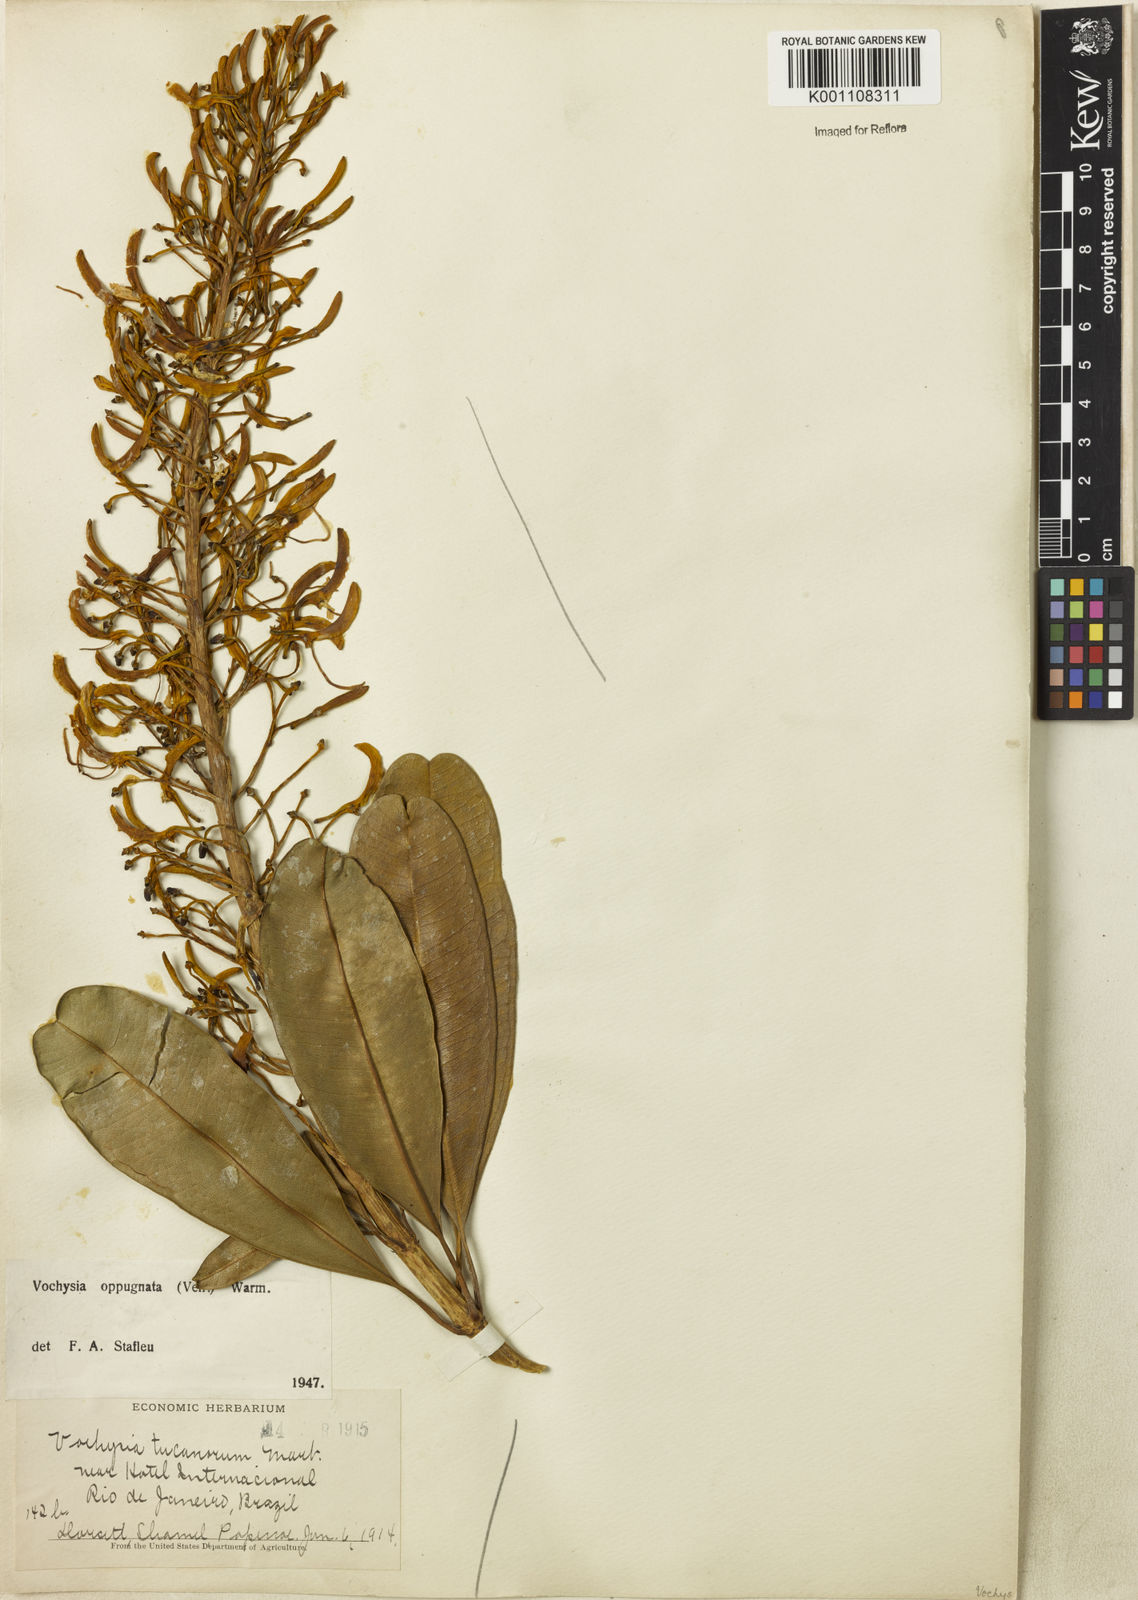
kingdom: Plantae
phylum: Tracheophyta
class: Magnoliopsida
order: Myrtales
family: Vochysiaceae
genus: Vochysia
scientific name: Vochysia oppugnata
